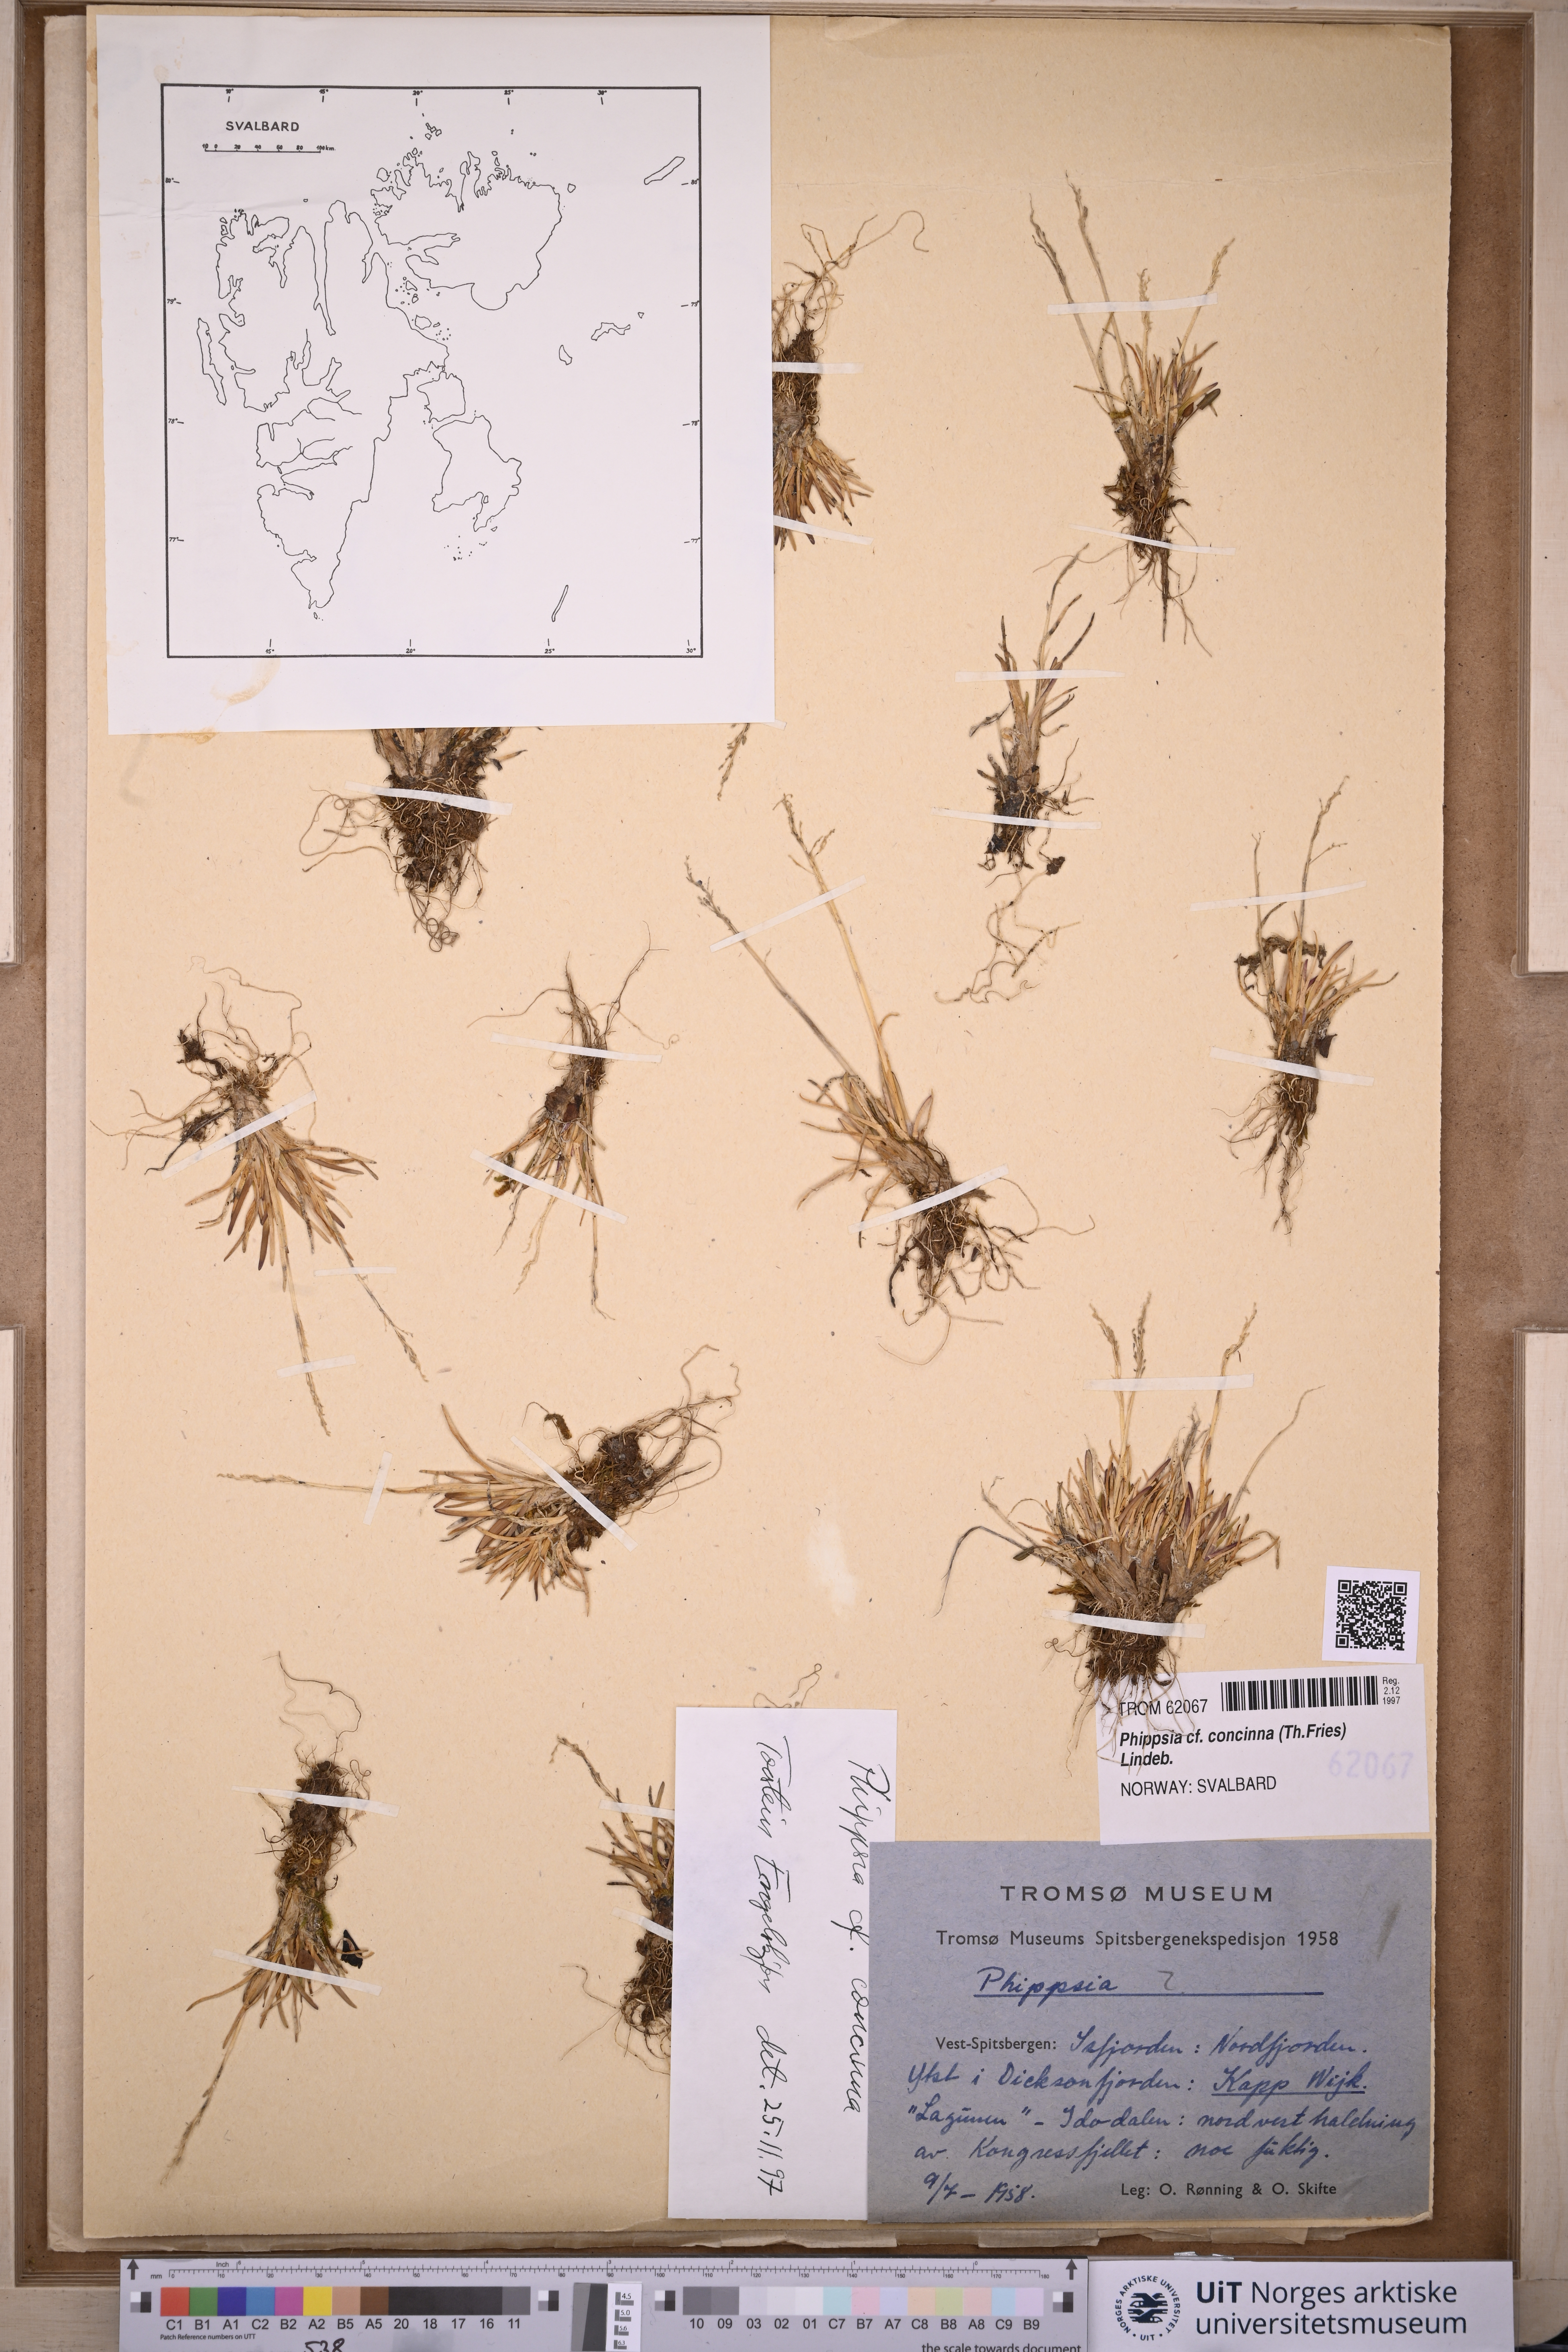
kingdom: Plantae
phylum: Tracheophyta
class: Liliopsida
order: Poales
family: Poaceae
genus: Phippsia
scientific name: Phippsia concinna
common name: Snowgrass
